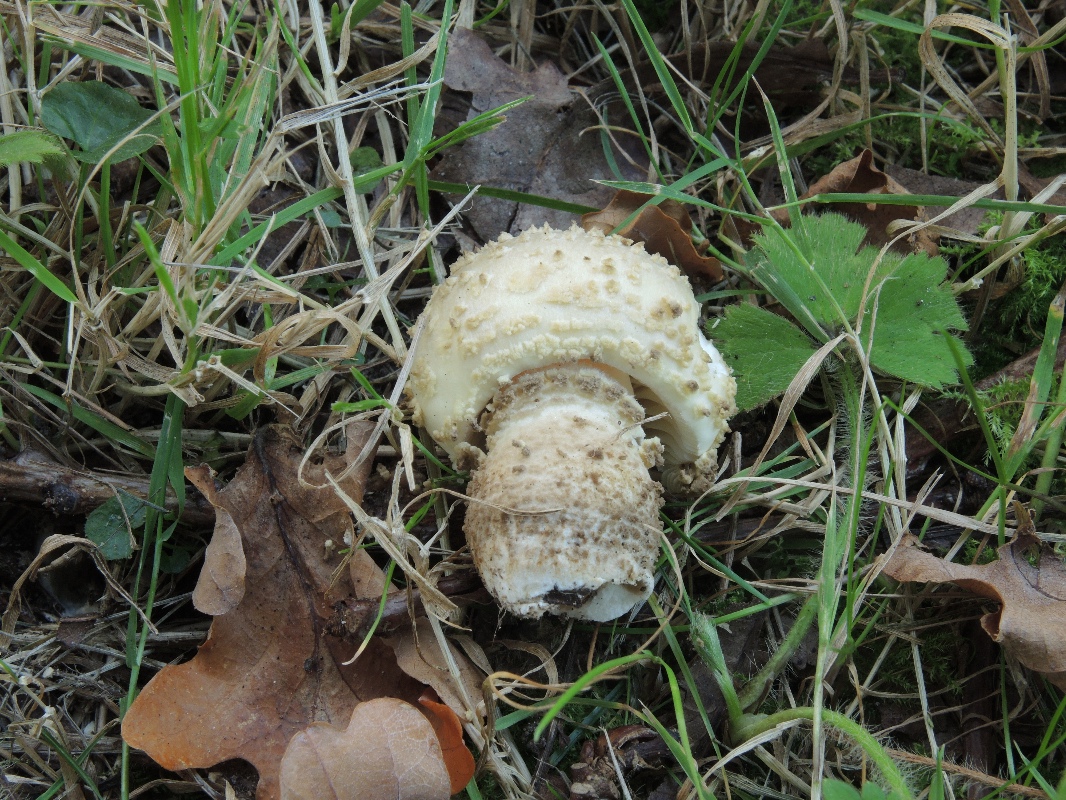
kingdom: Fungi
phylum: Basidiomycota
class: Agaricomycetes
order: Agaricales
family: Amanitaceae
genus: Amanita
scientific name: Amanita franchetii
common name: gulrandet fluesvamp
